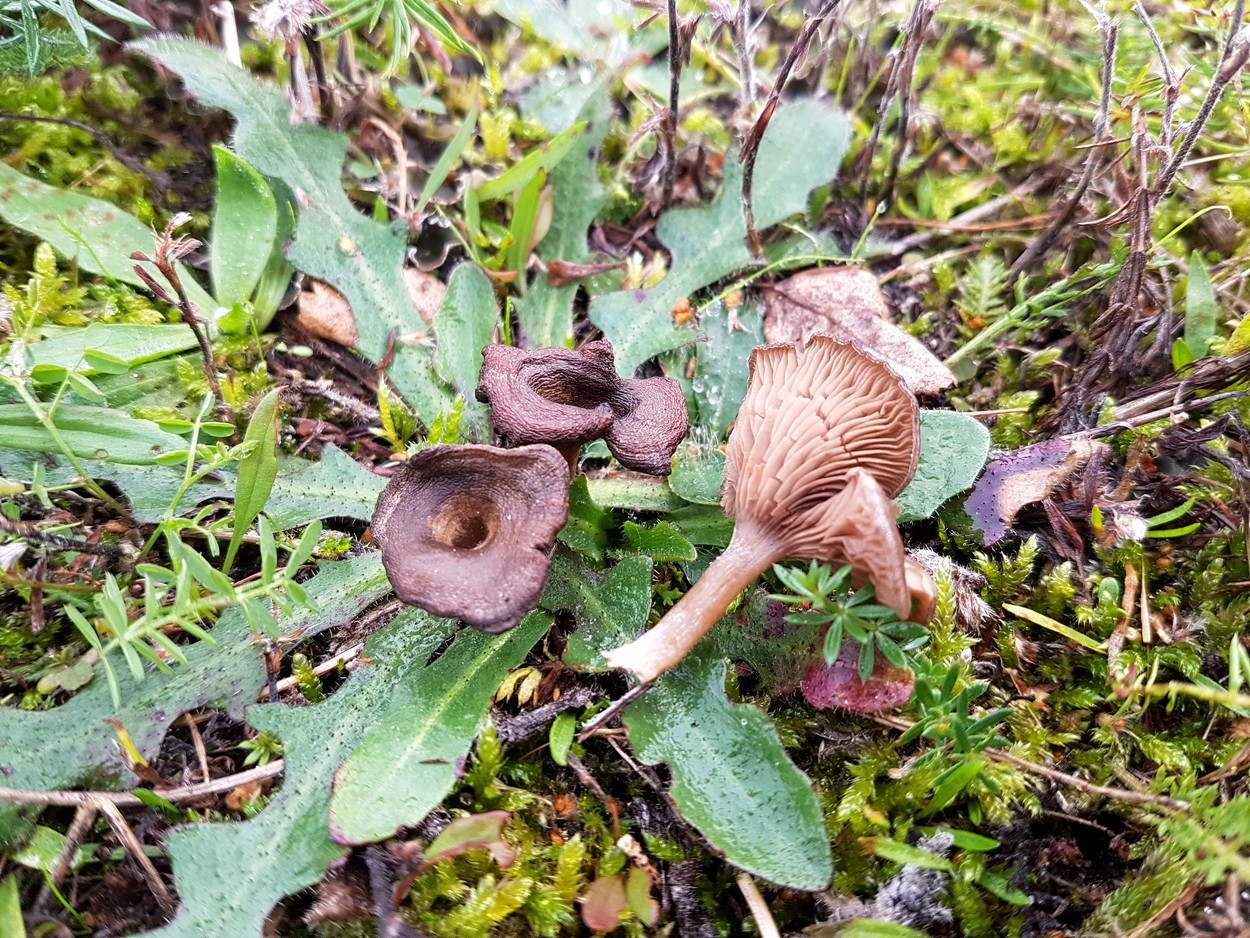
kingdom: Fungi
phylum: Basidiomycota
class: Agaricomycetes
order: Agaricales
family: Entolomataceae
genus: Entoloma
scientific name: Entoloma undatum
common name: bæltet rødblad
